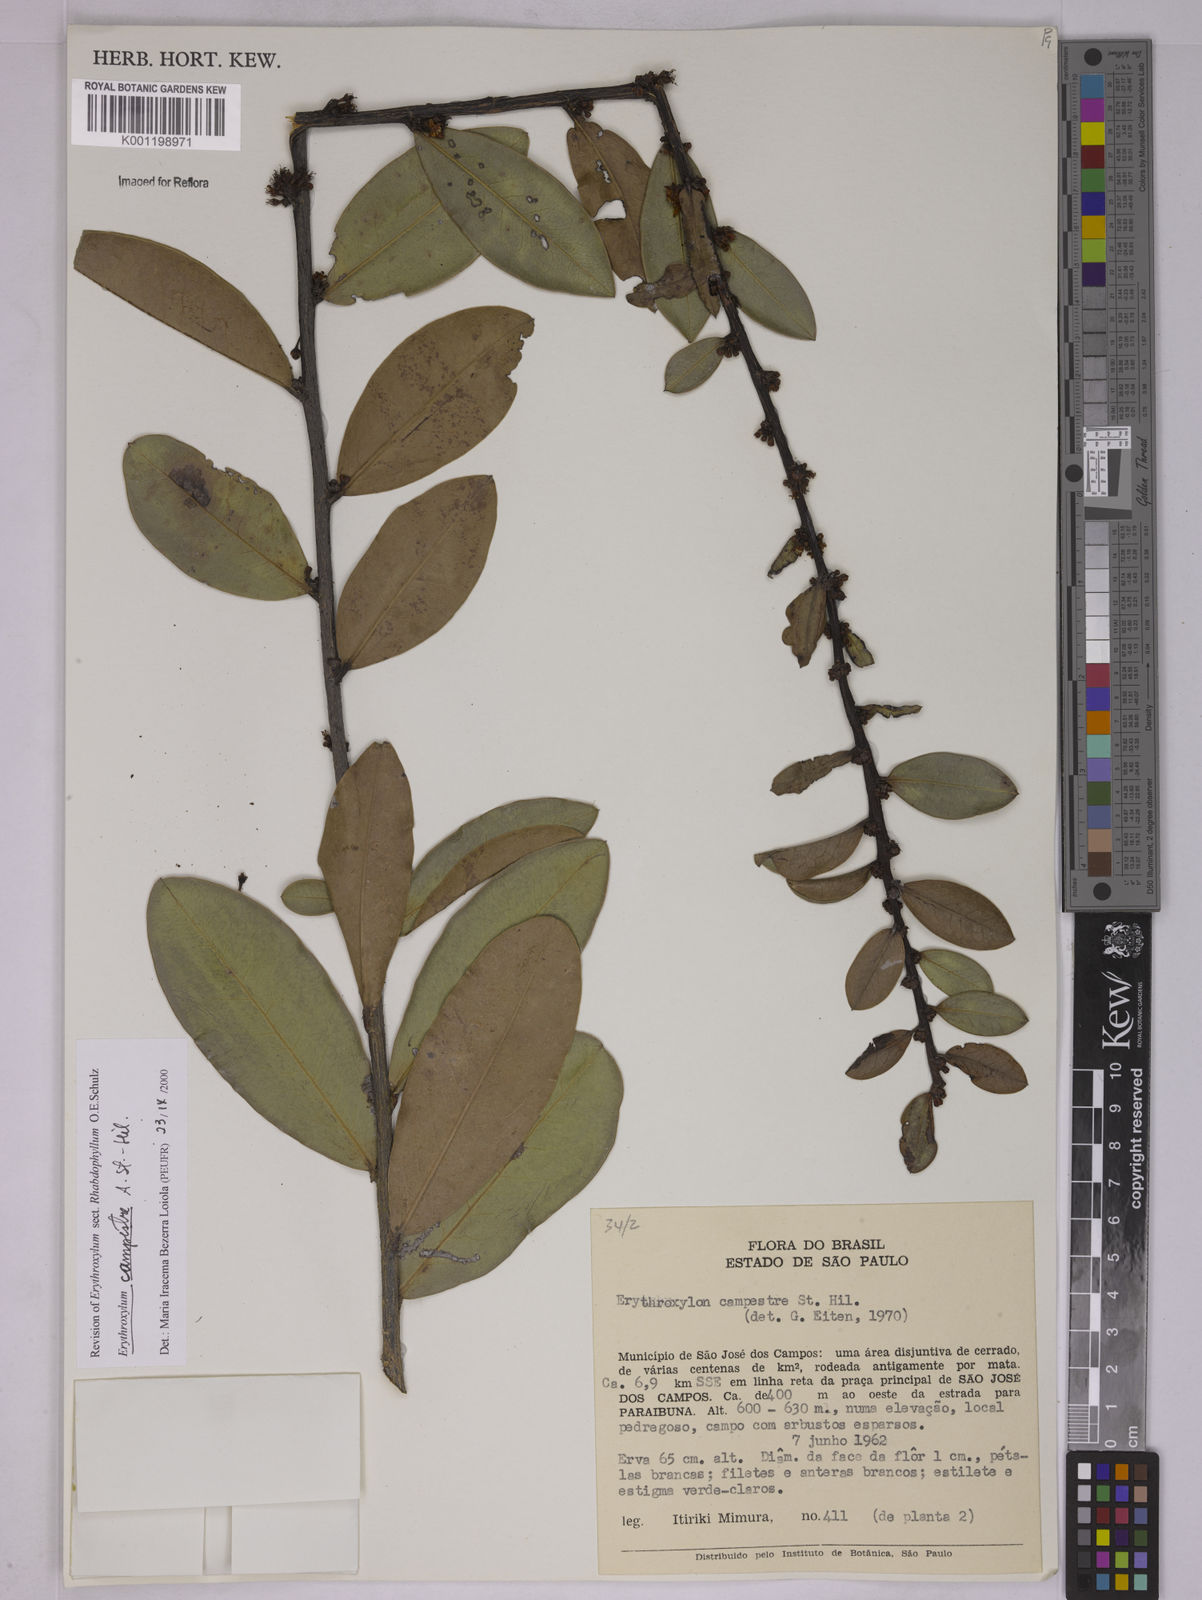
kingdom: Plantae
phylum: Tracheophyta
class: Magnoliopsida
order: Malpighiales
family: Erythroxylaceae
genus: Erythroxylum
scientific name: Erythroxylum campestre
